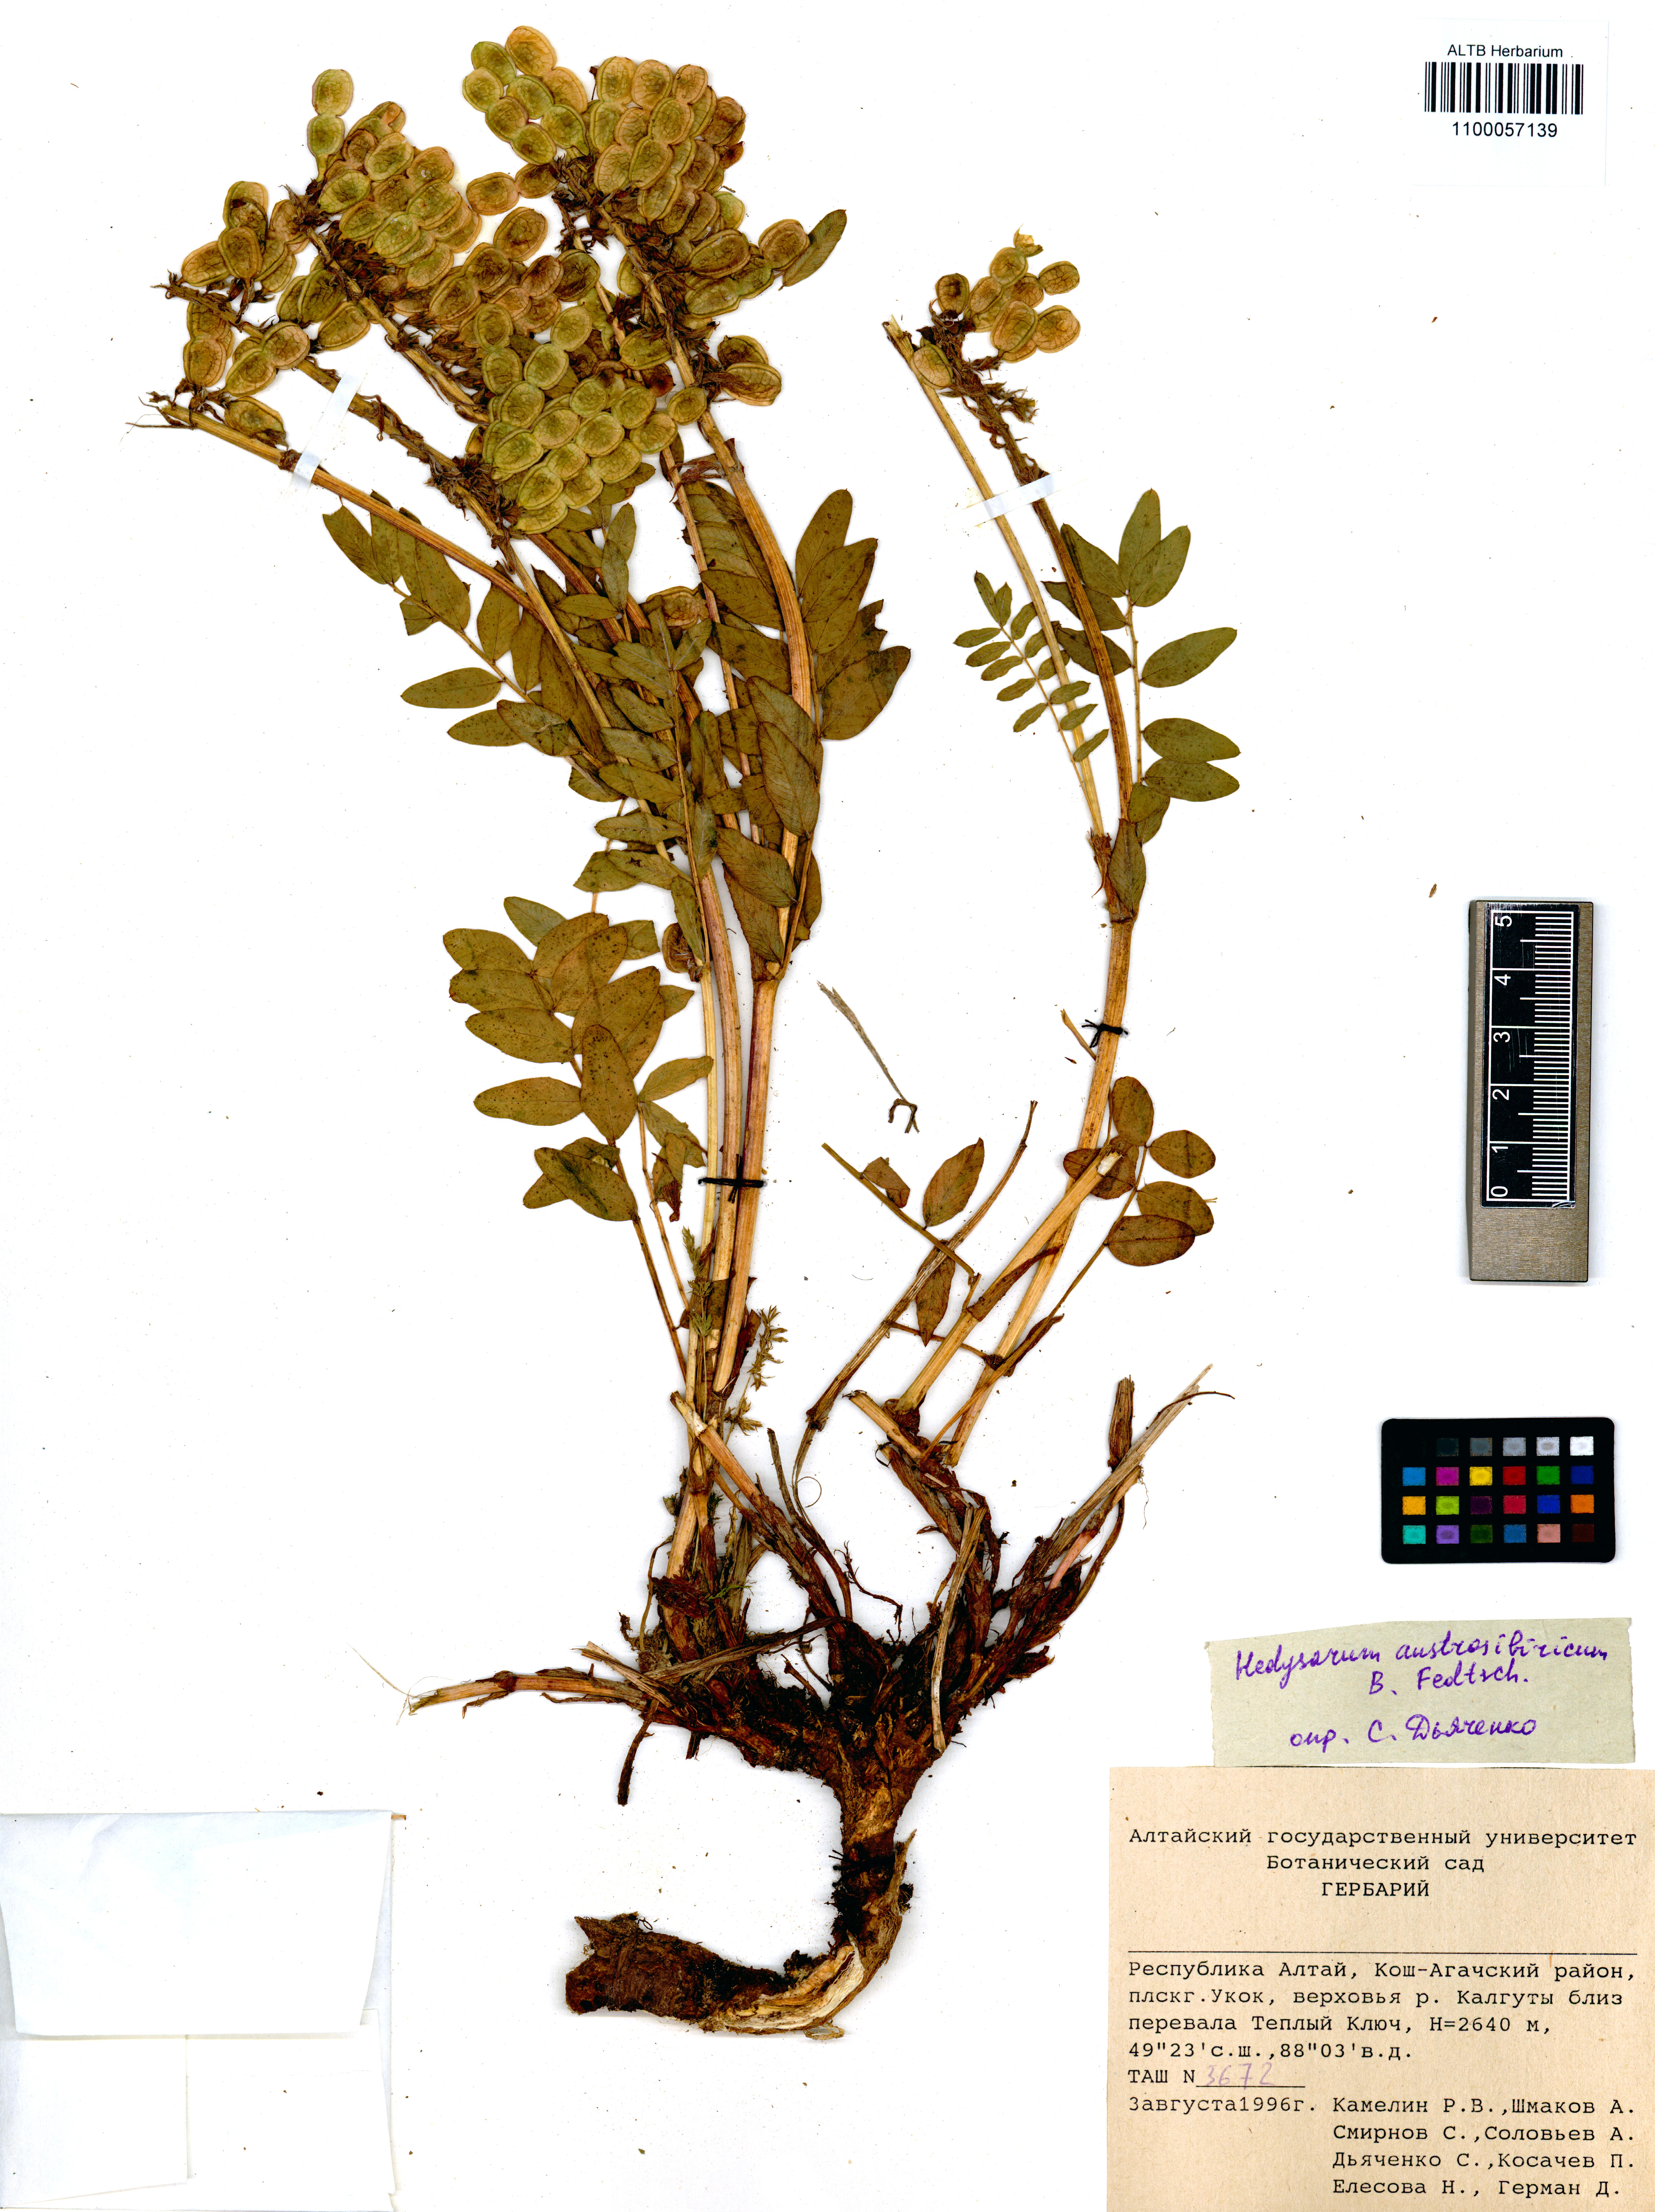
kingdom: Plantae
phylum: Tracheophyta
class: Magnoliopsida
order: Fabales
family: Fabaceae
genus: Hedysarum
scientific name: Hedysarum neglectum
